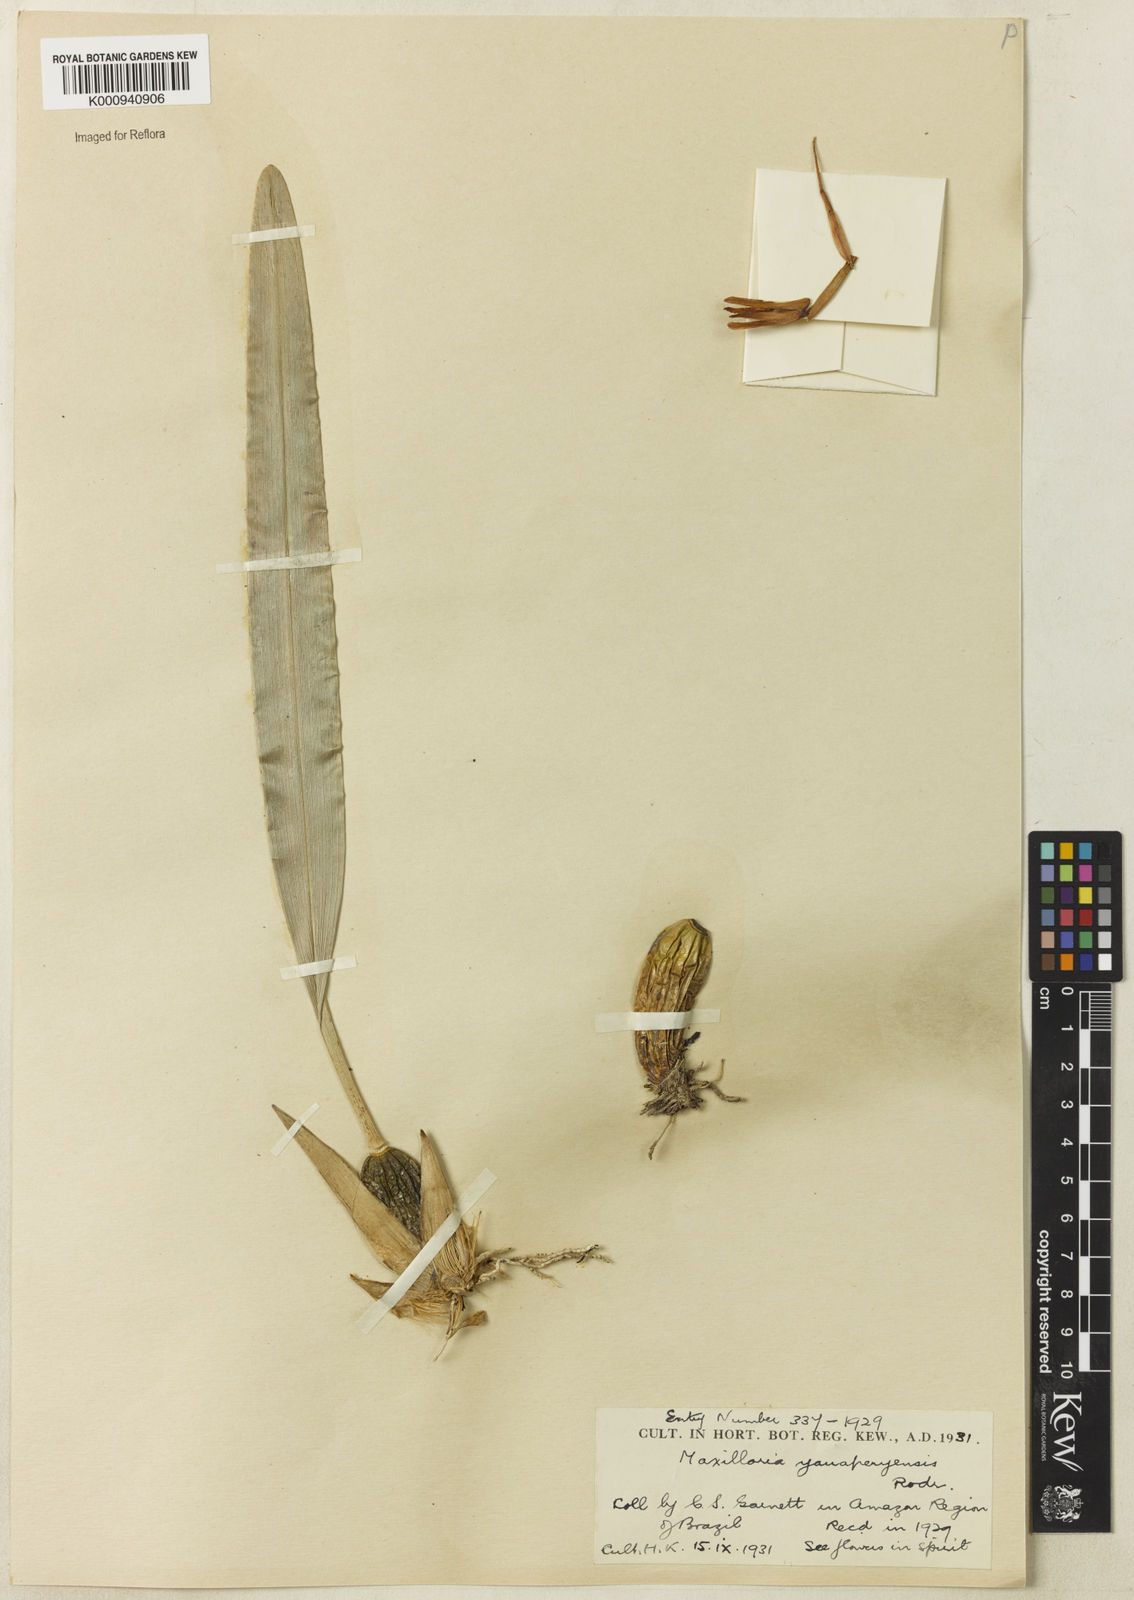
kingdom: Plantae
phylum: Tracheophyta
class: Liliopsida
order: Asparagales
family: Orchidaceae
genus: Maxillaria
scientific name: Maxillaria yauaperyensis
